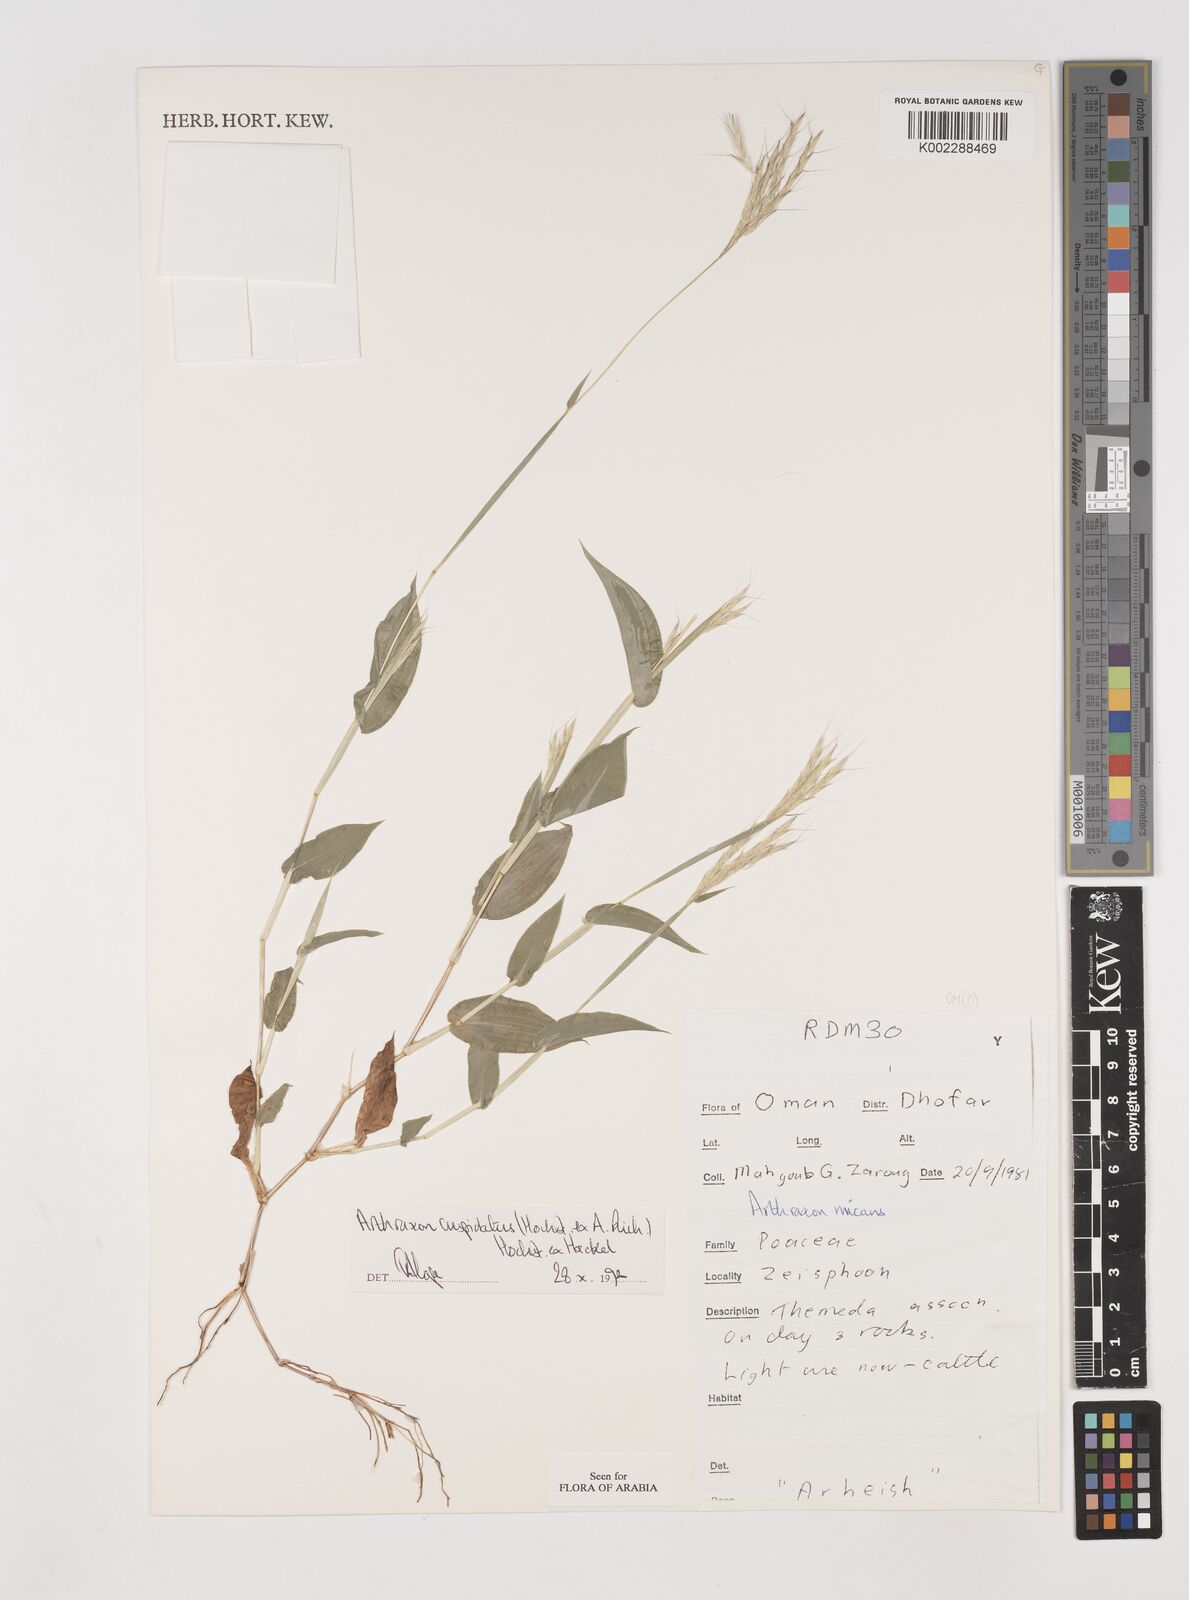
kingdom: Plantae
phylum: Tracheophyta
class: Liliopsida
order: Poales
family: Poaceae
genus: Arthraxon
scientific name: Arthraxon cuspidatus
